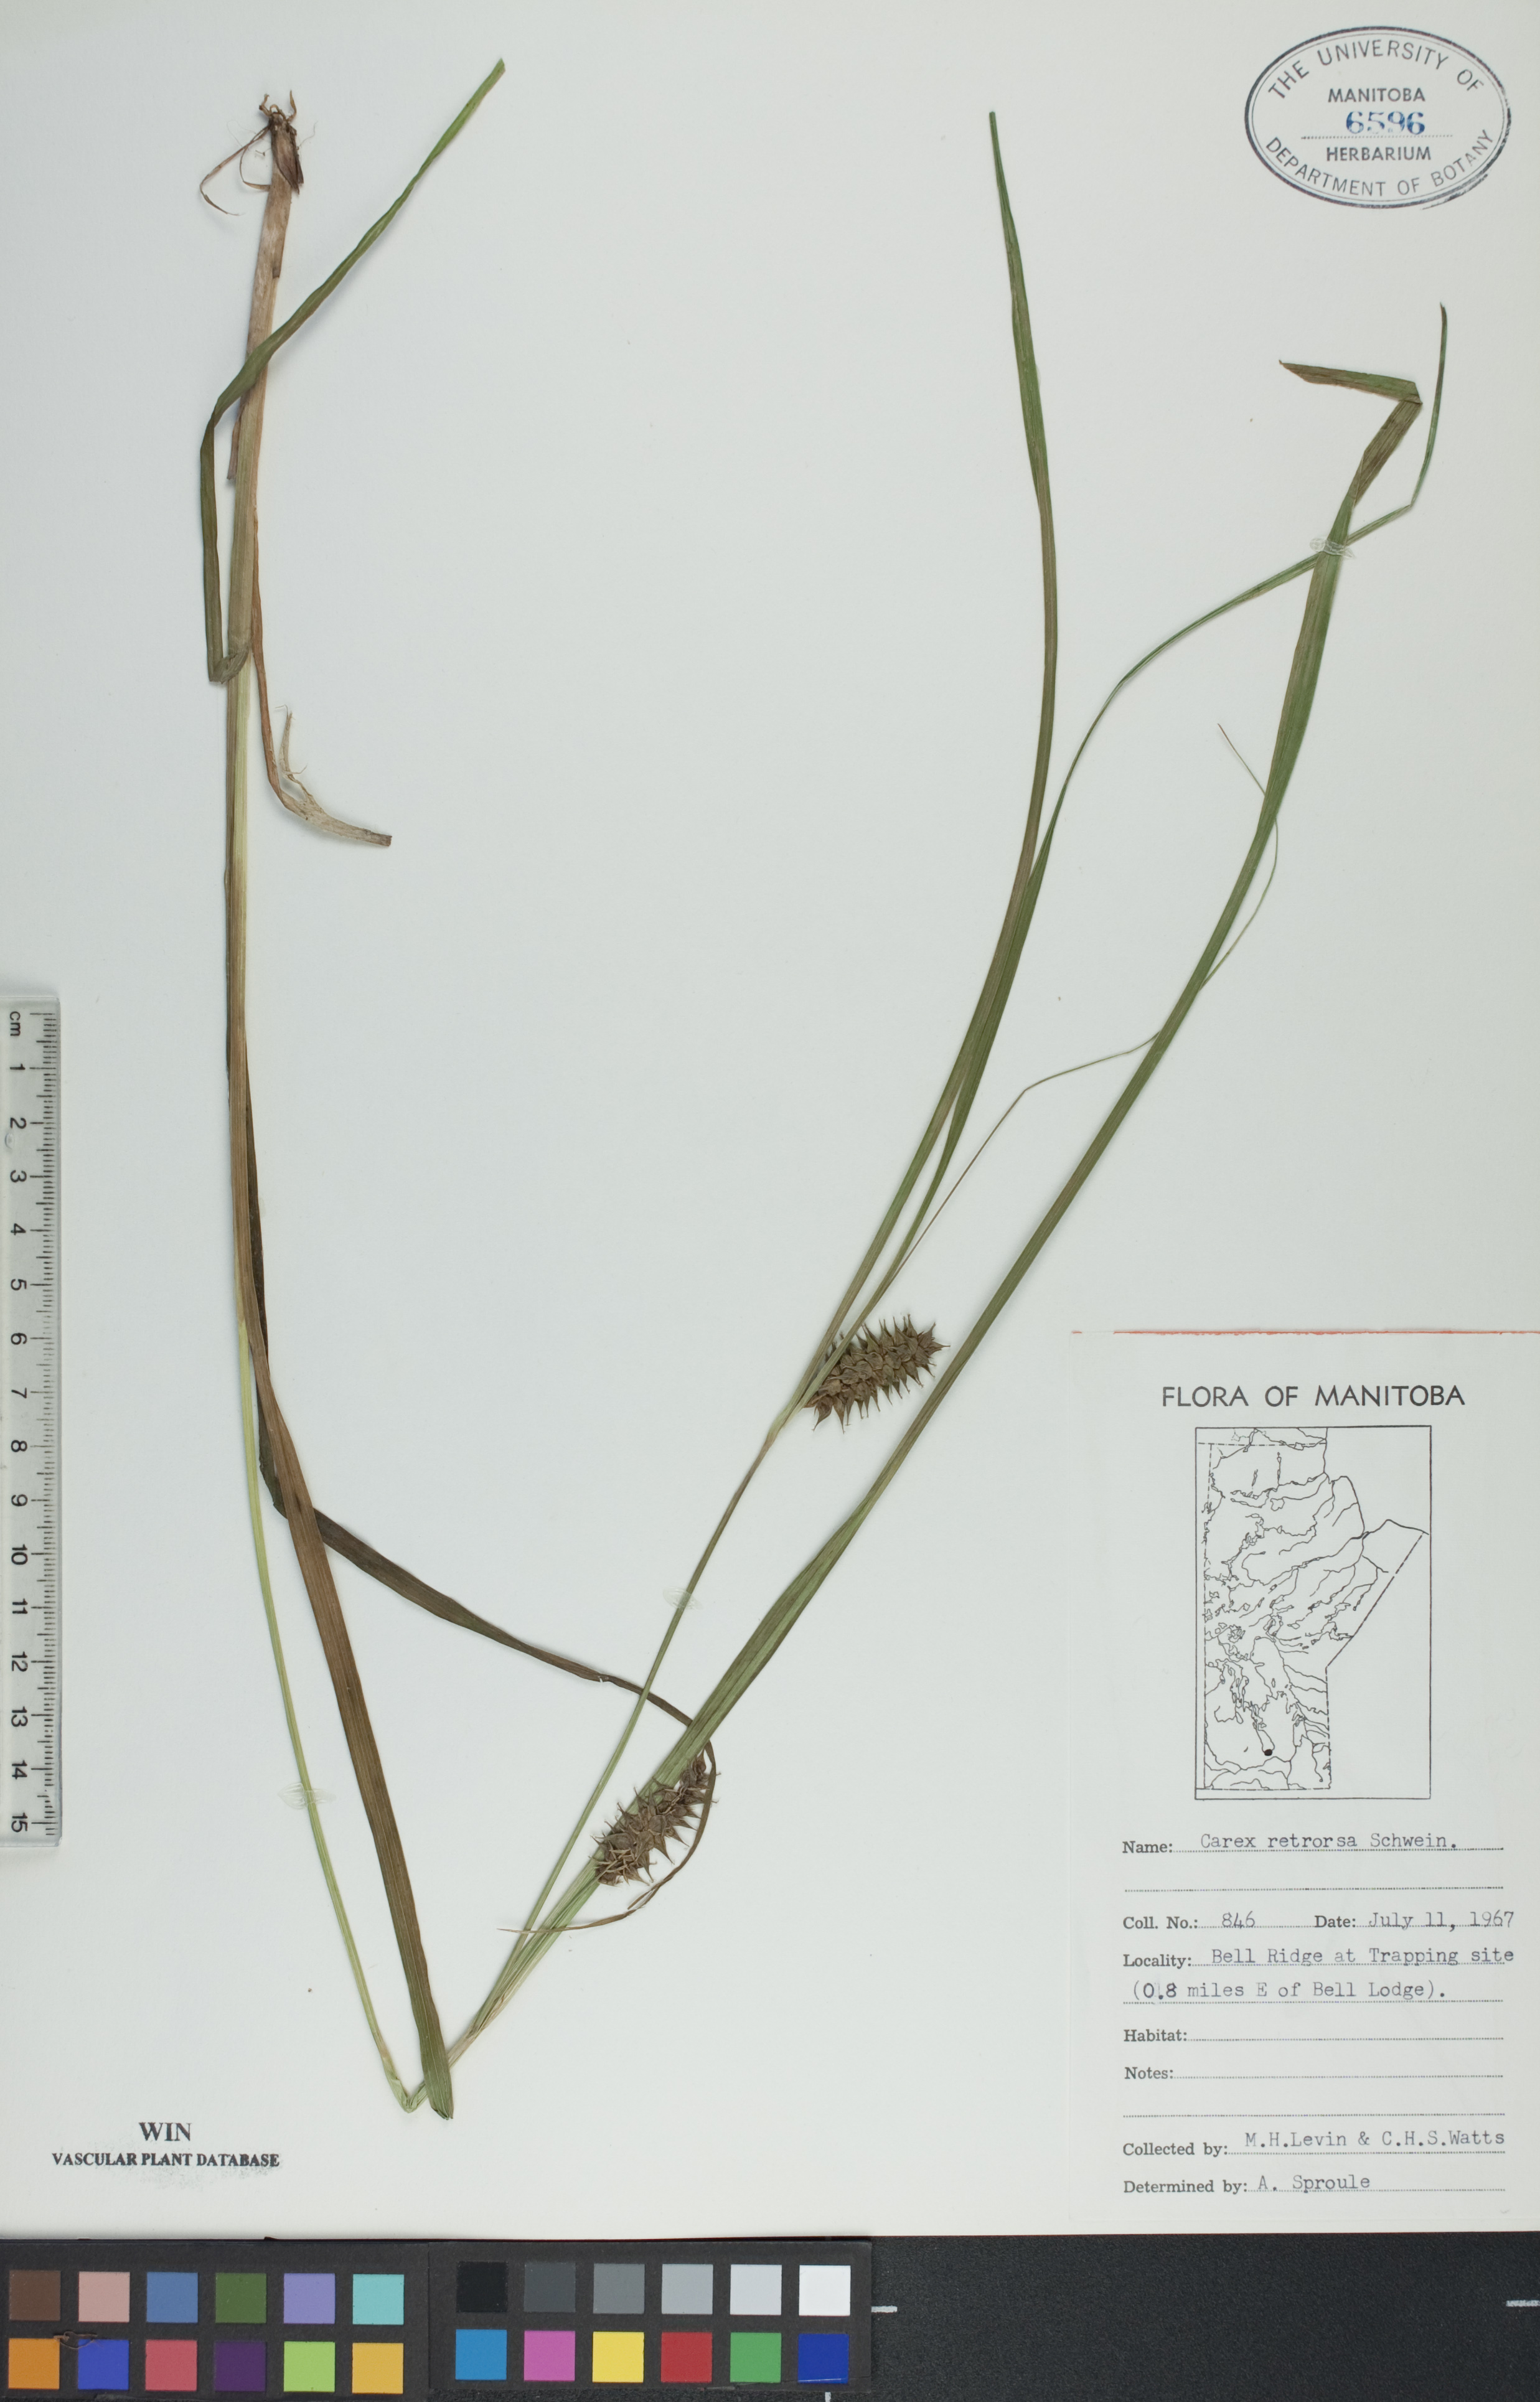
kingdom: Plantae
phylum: Tracheophyta
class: Liliopsida
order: Poales
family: Cyperaceae
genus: Carex
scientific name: Carex retrorsa
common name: Knot-sheath sedge
